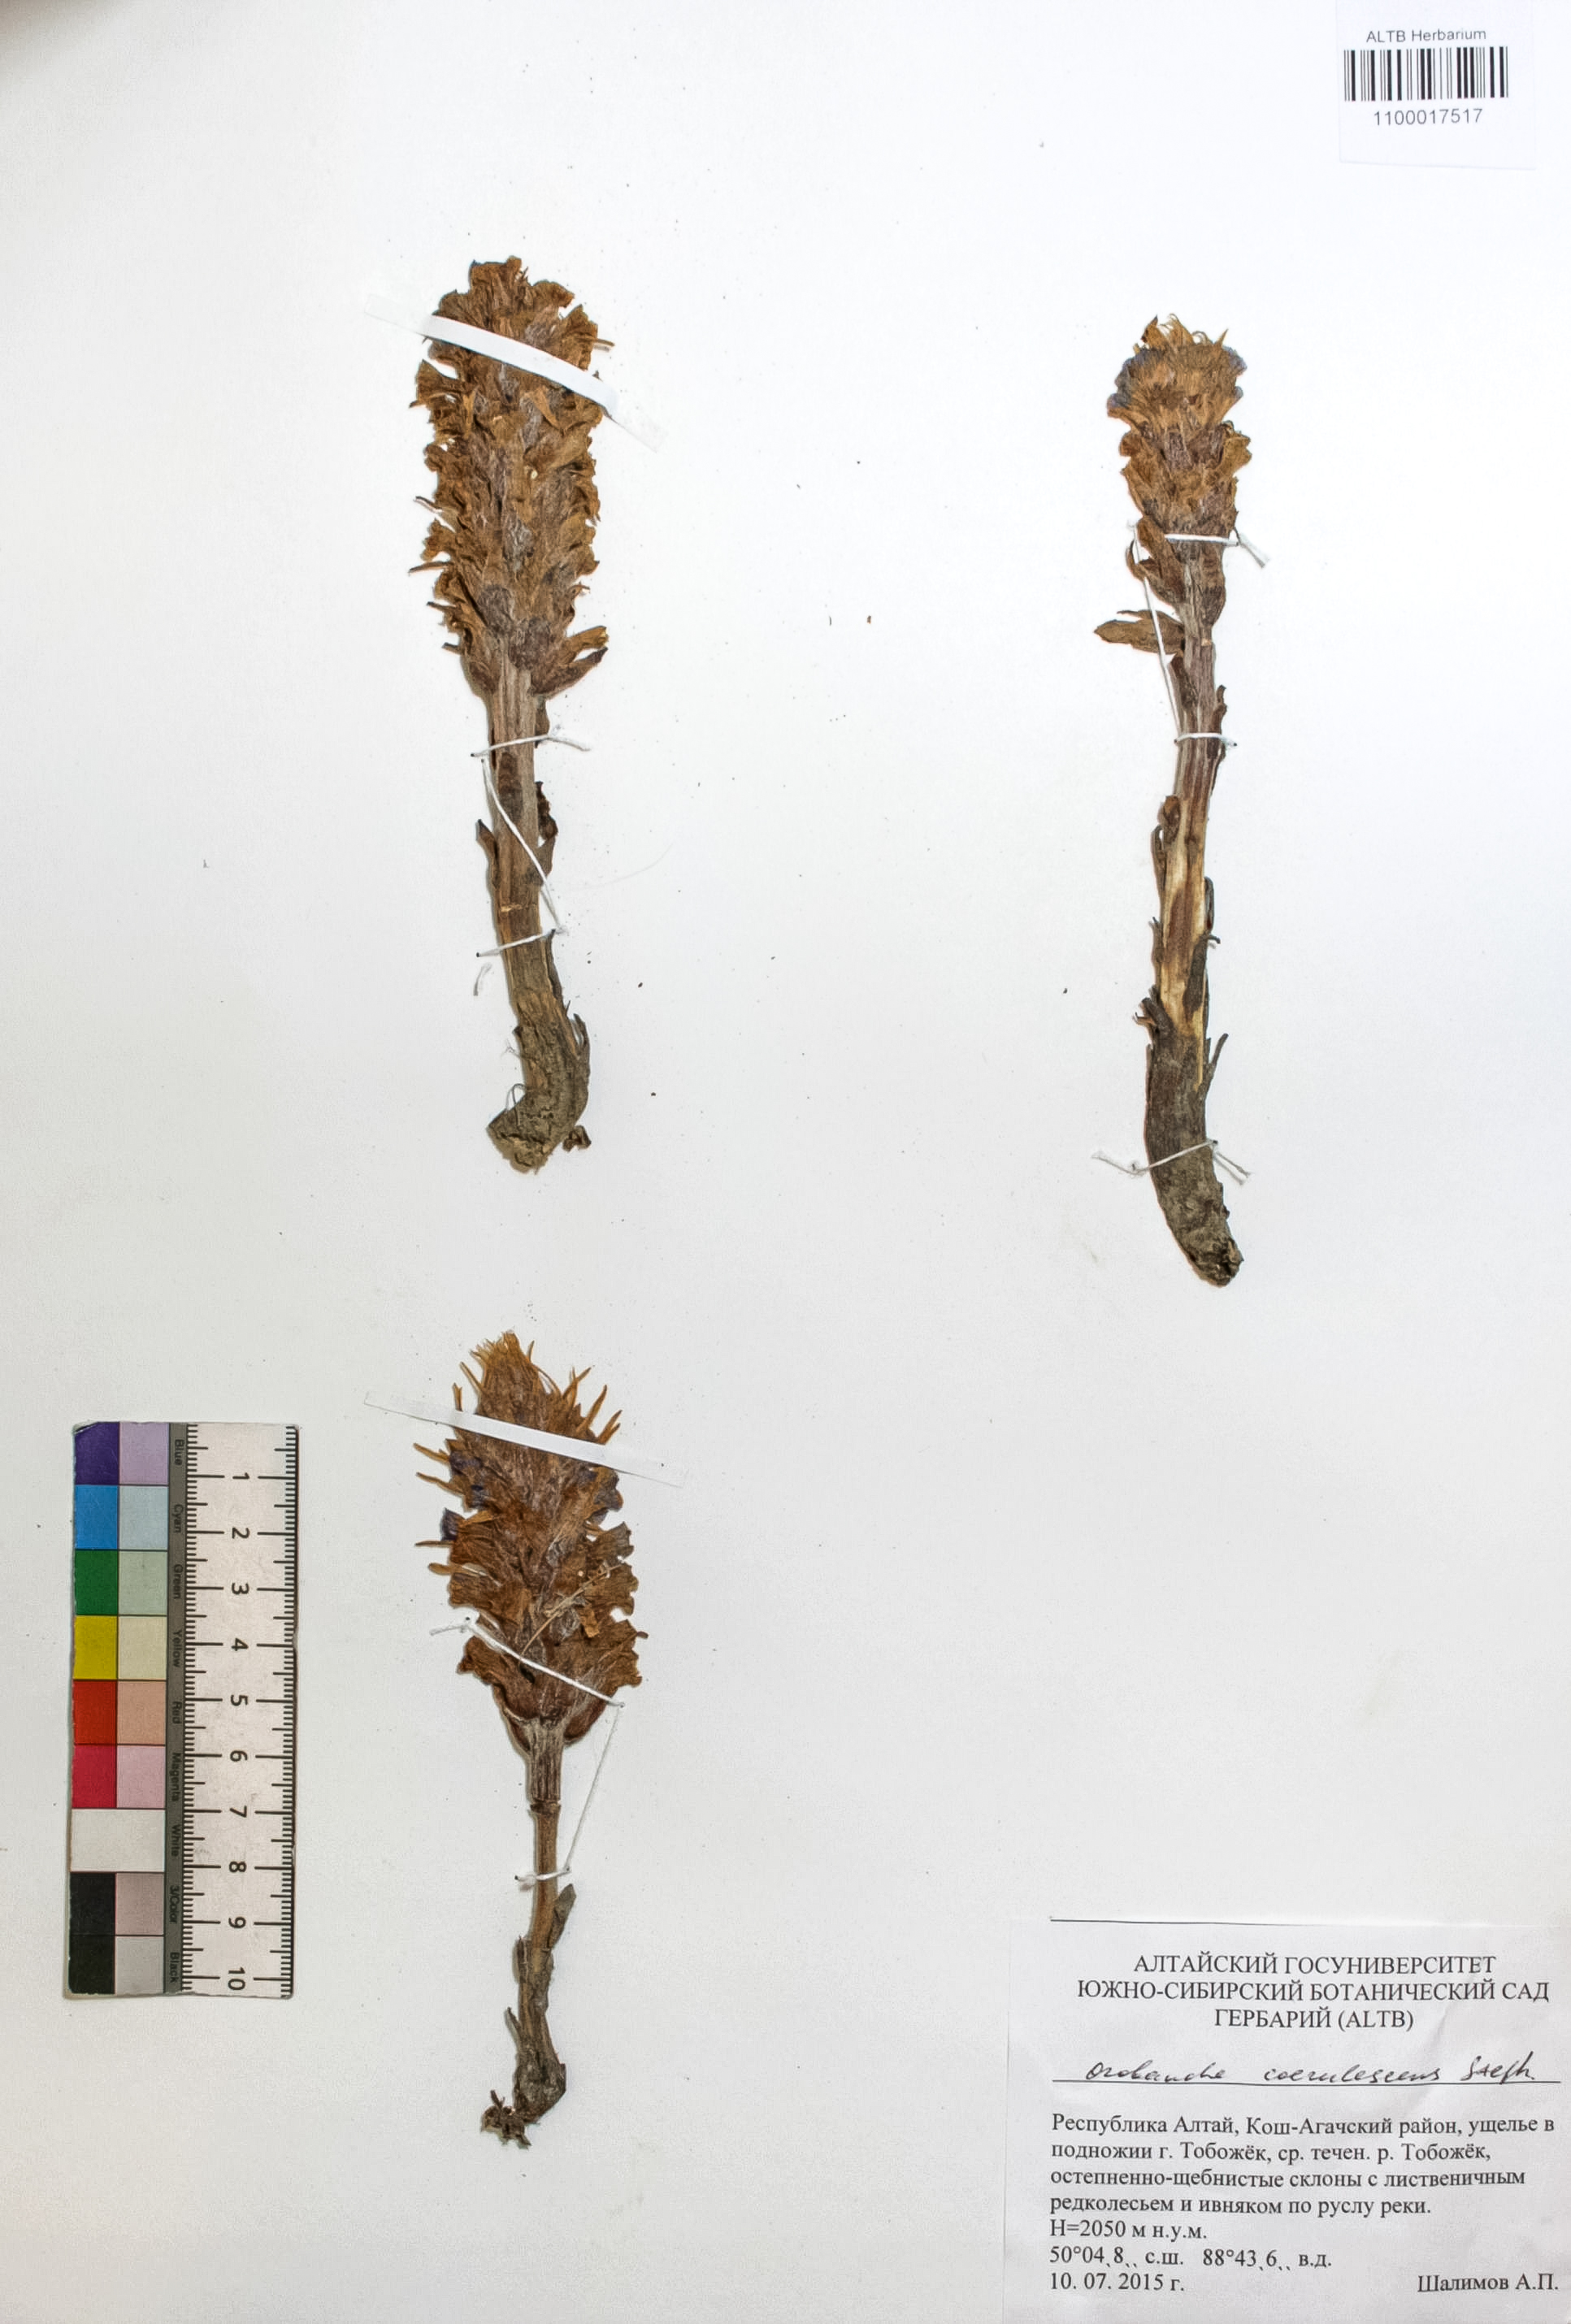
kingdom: Plantae
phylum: Tracheophyta
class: Magnoliopsida
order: Lamiales
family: Orobanchaceae
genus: Orobanche
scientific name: Orobanche coerulescens
